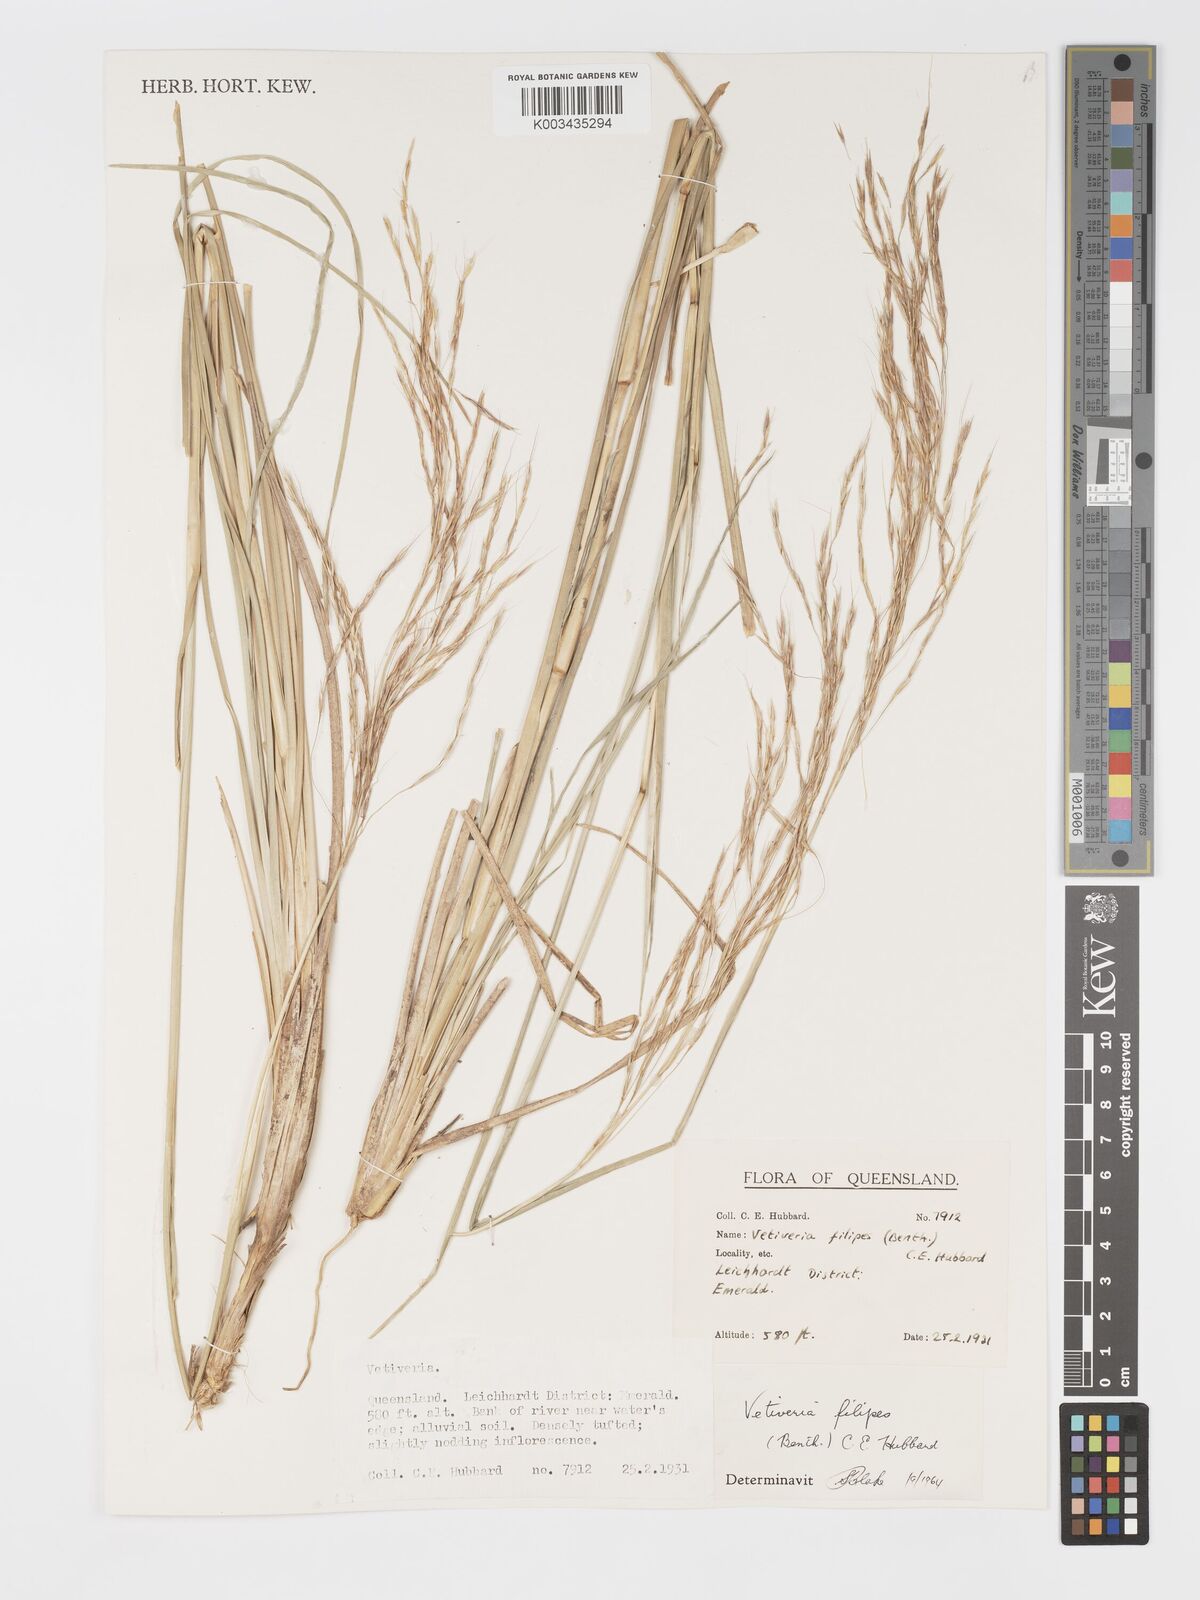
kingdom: Plantae
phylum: Tracheophyta
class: Liliopsida
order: Poales
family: Poaceae
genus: Chrysopogon
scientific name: Chrysopogon filipes
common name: Australian vetiver
